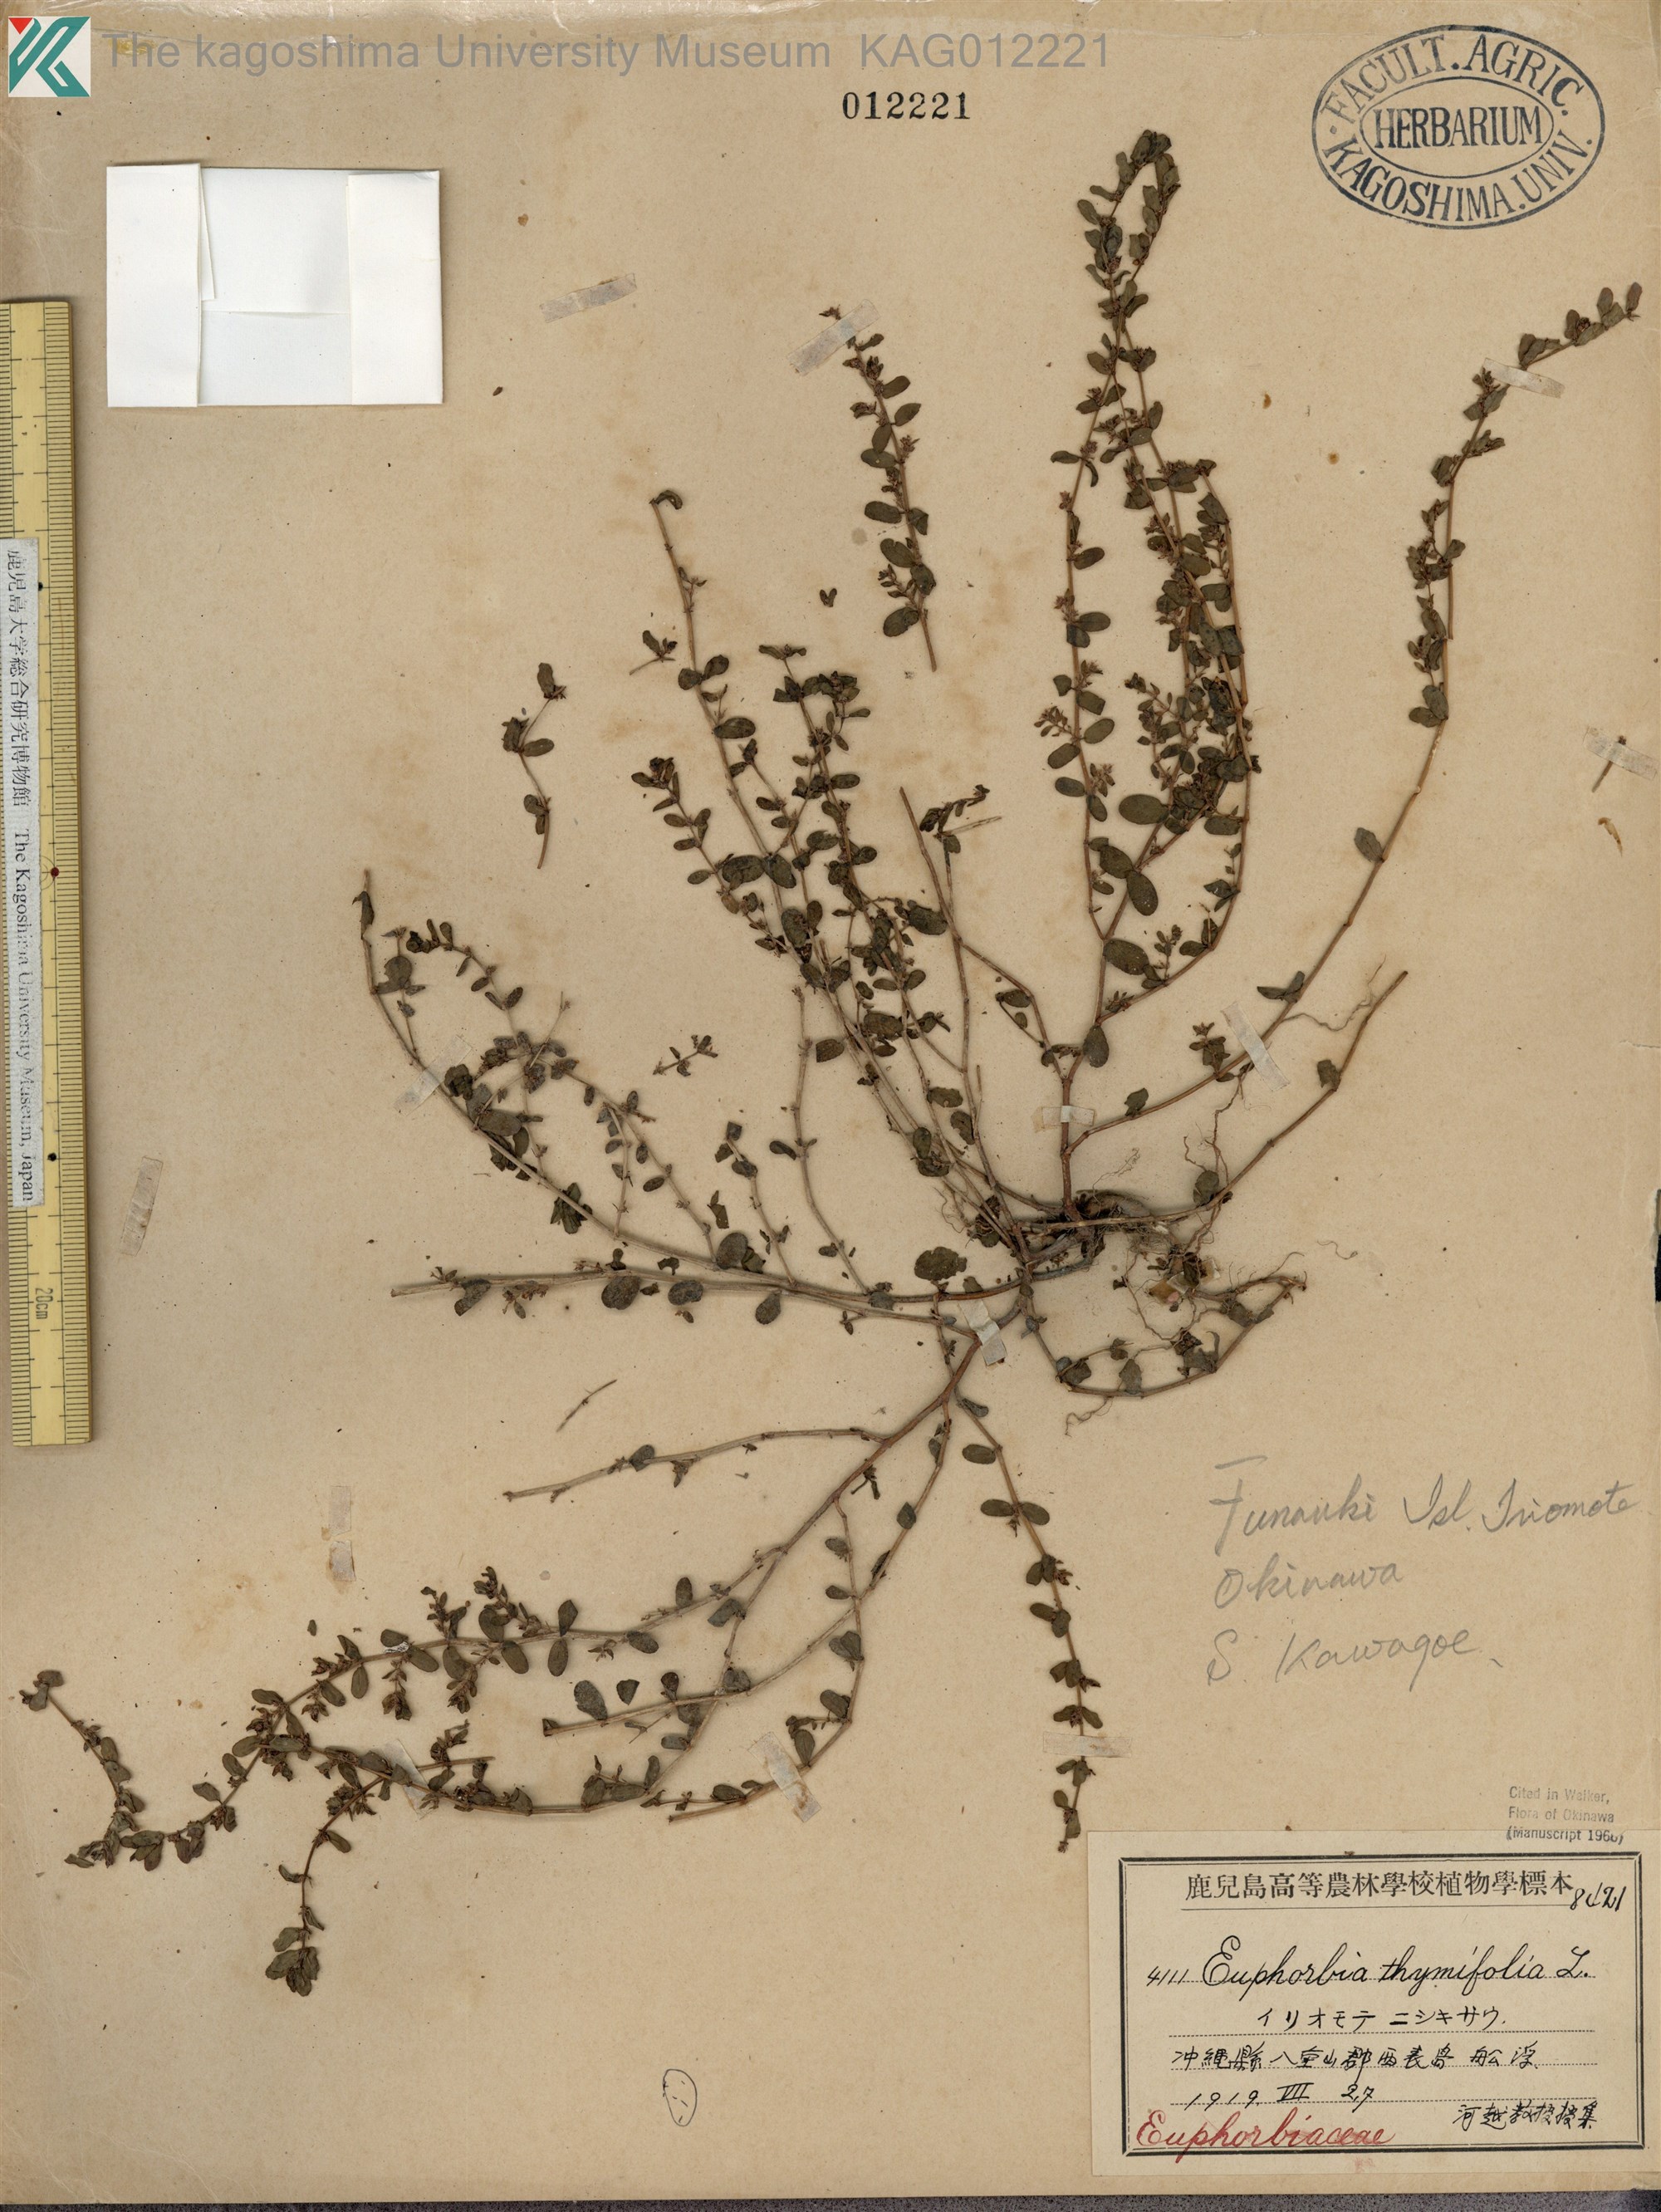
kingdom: Plantae
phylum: Tracheophyta
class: Magnoliopsida
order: Malpighiales
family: Euphorbiaceae
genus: Euphorbia
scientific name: Euphorbia thymifolia
